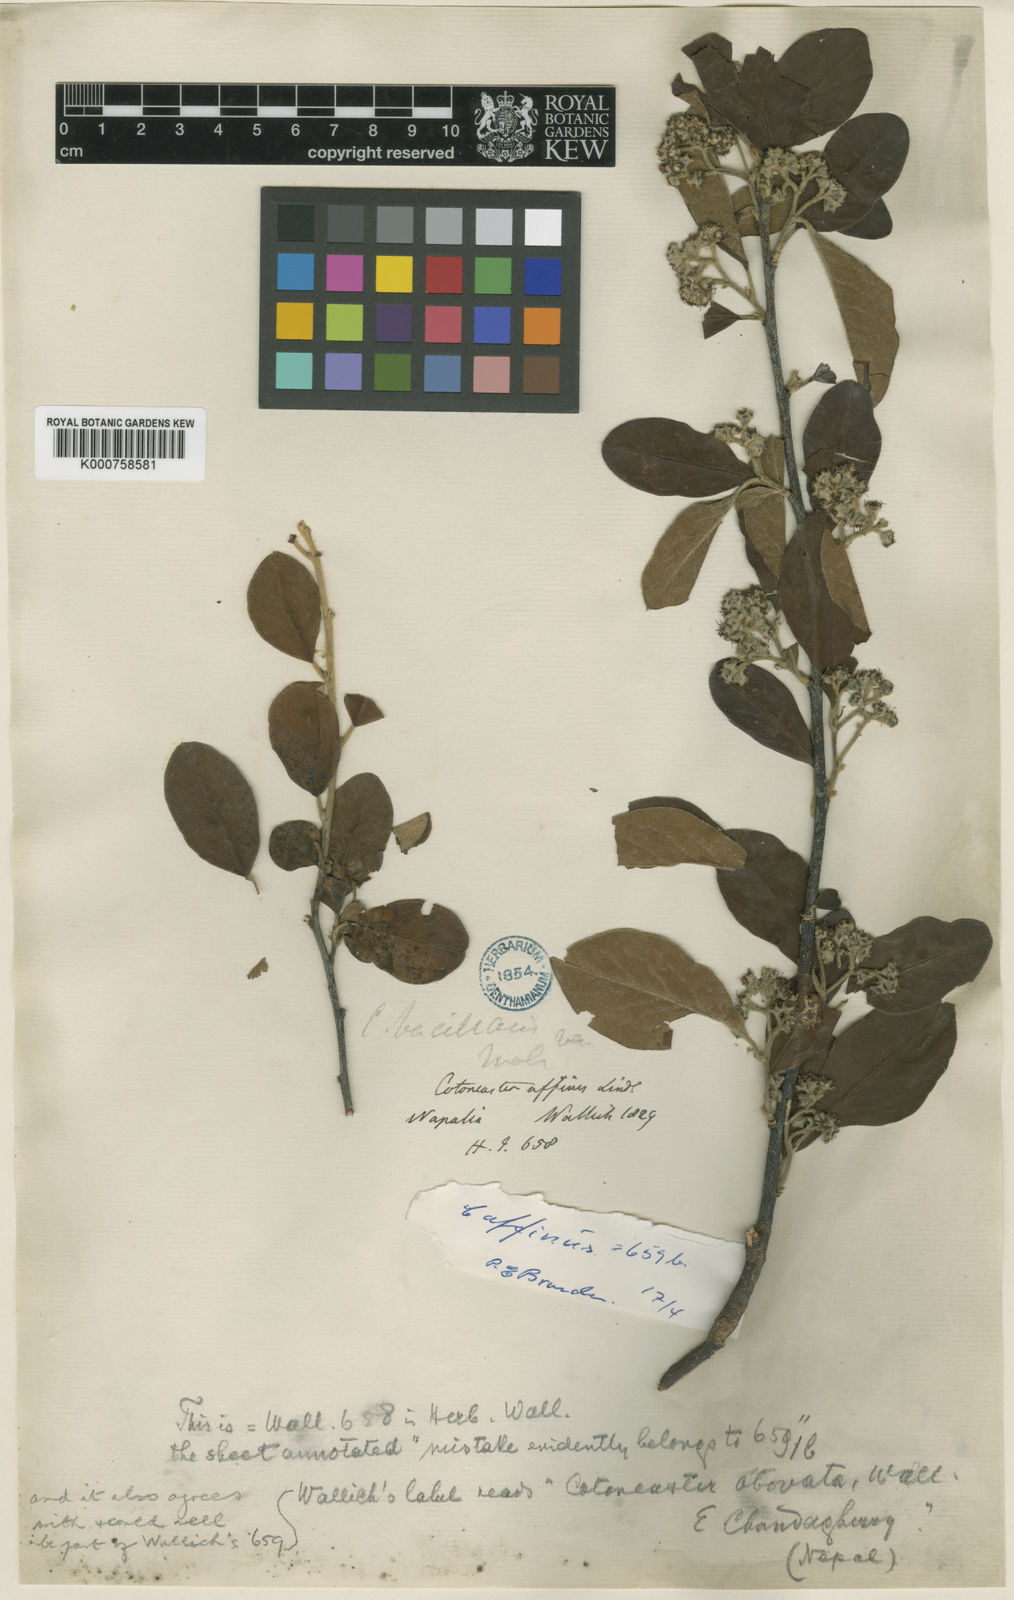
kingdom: Plantae
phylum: Tracheophyta
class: Magnoliopsida
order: Rosales
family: Rosaceae
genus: Cotoneaster
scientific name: Cotoneaster obovatus
